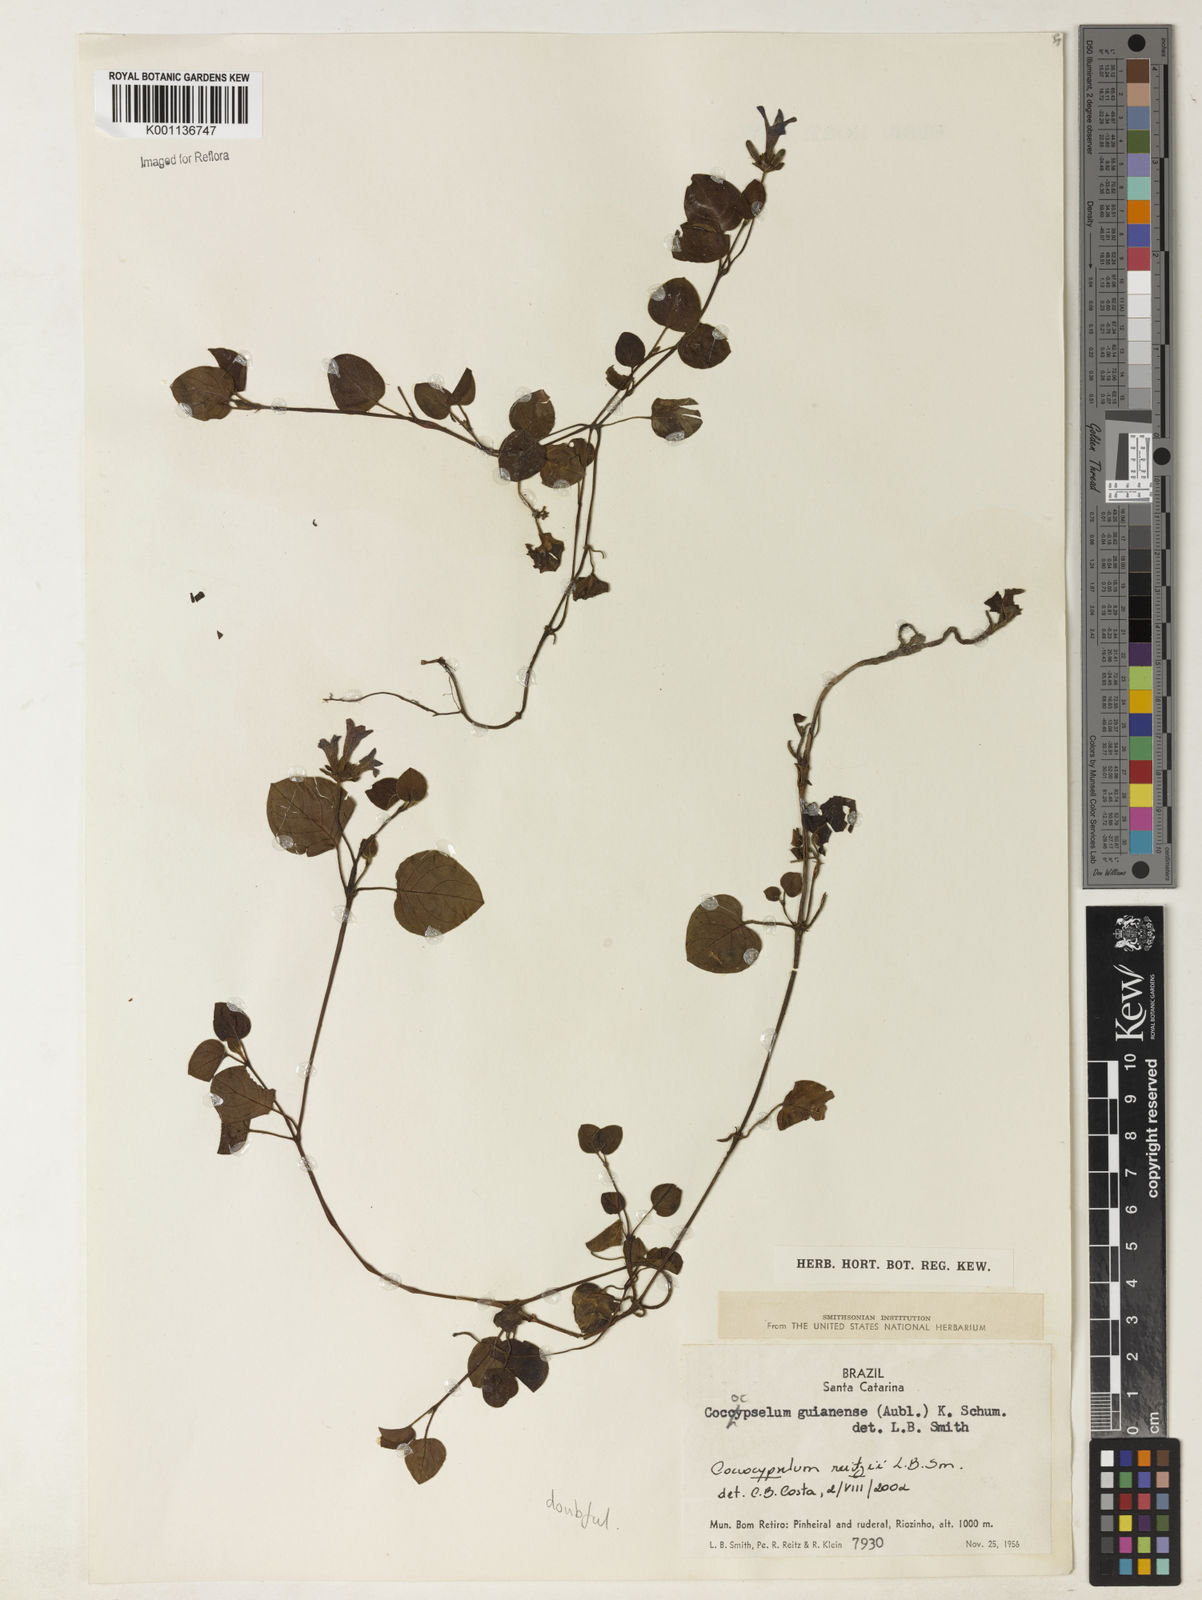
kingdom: Plantae
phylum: Tracheophyta
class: Magnoliopsida
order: Gentianales
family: Rubiaceae
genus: Coccocypselum
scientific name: Coccocypselum pulchellum
